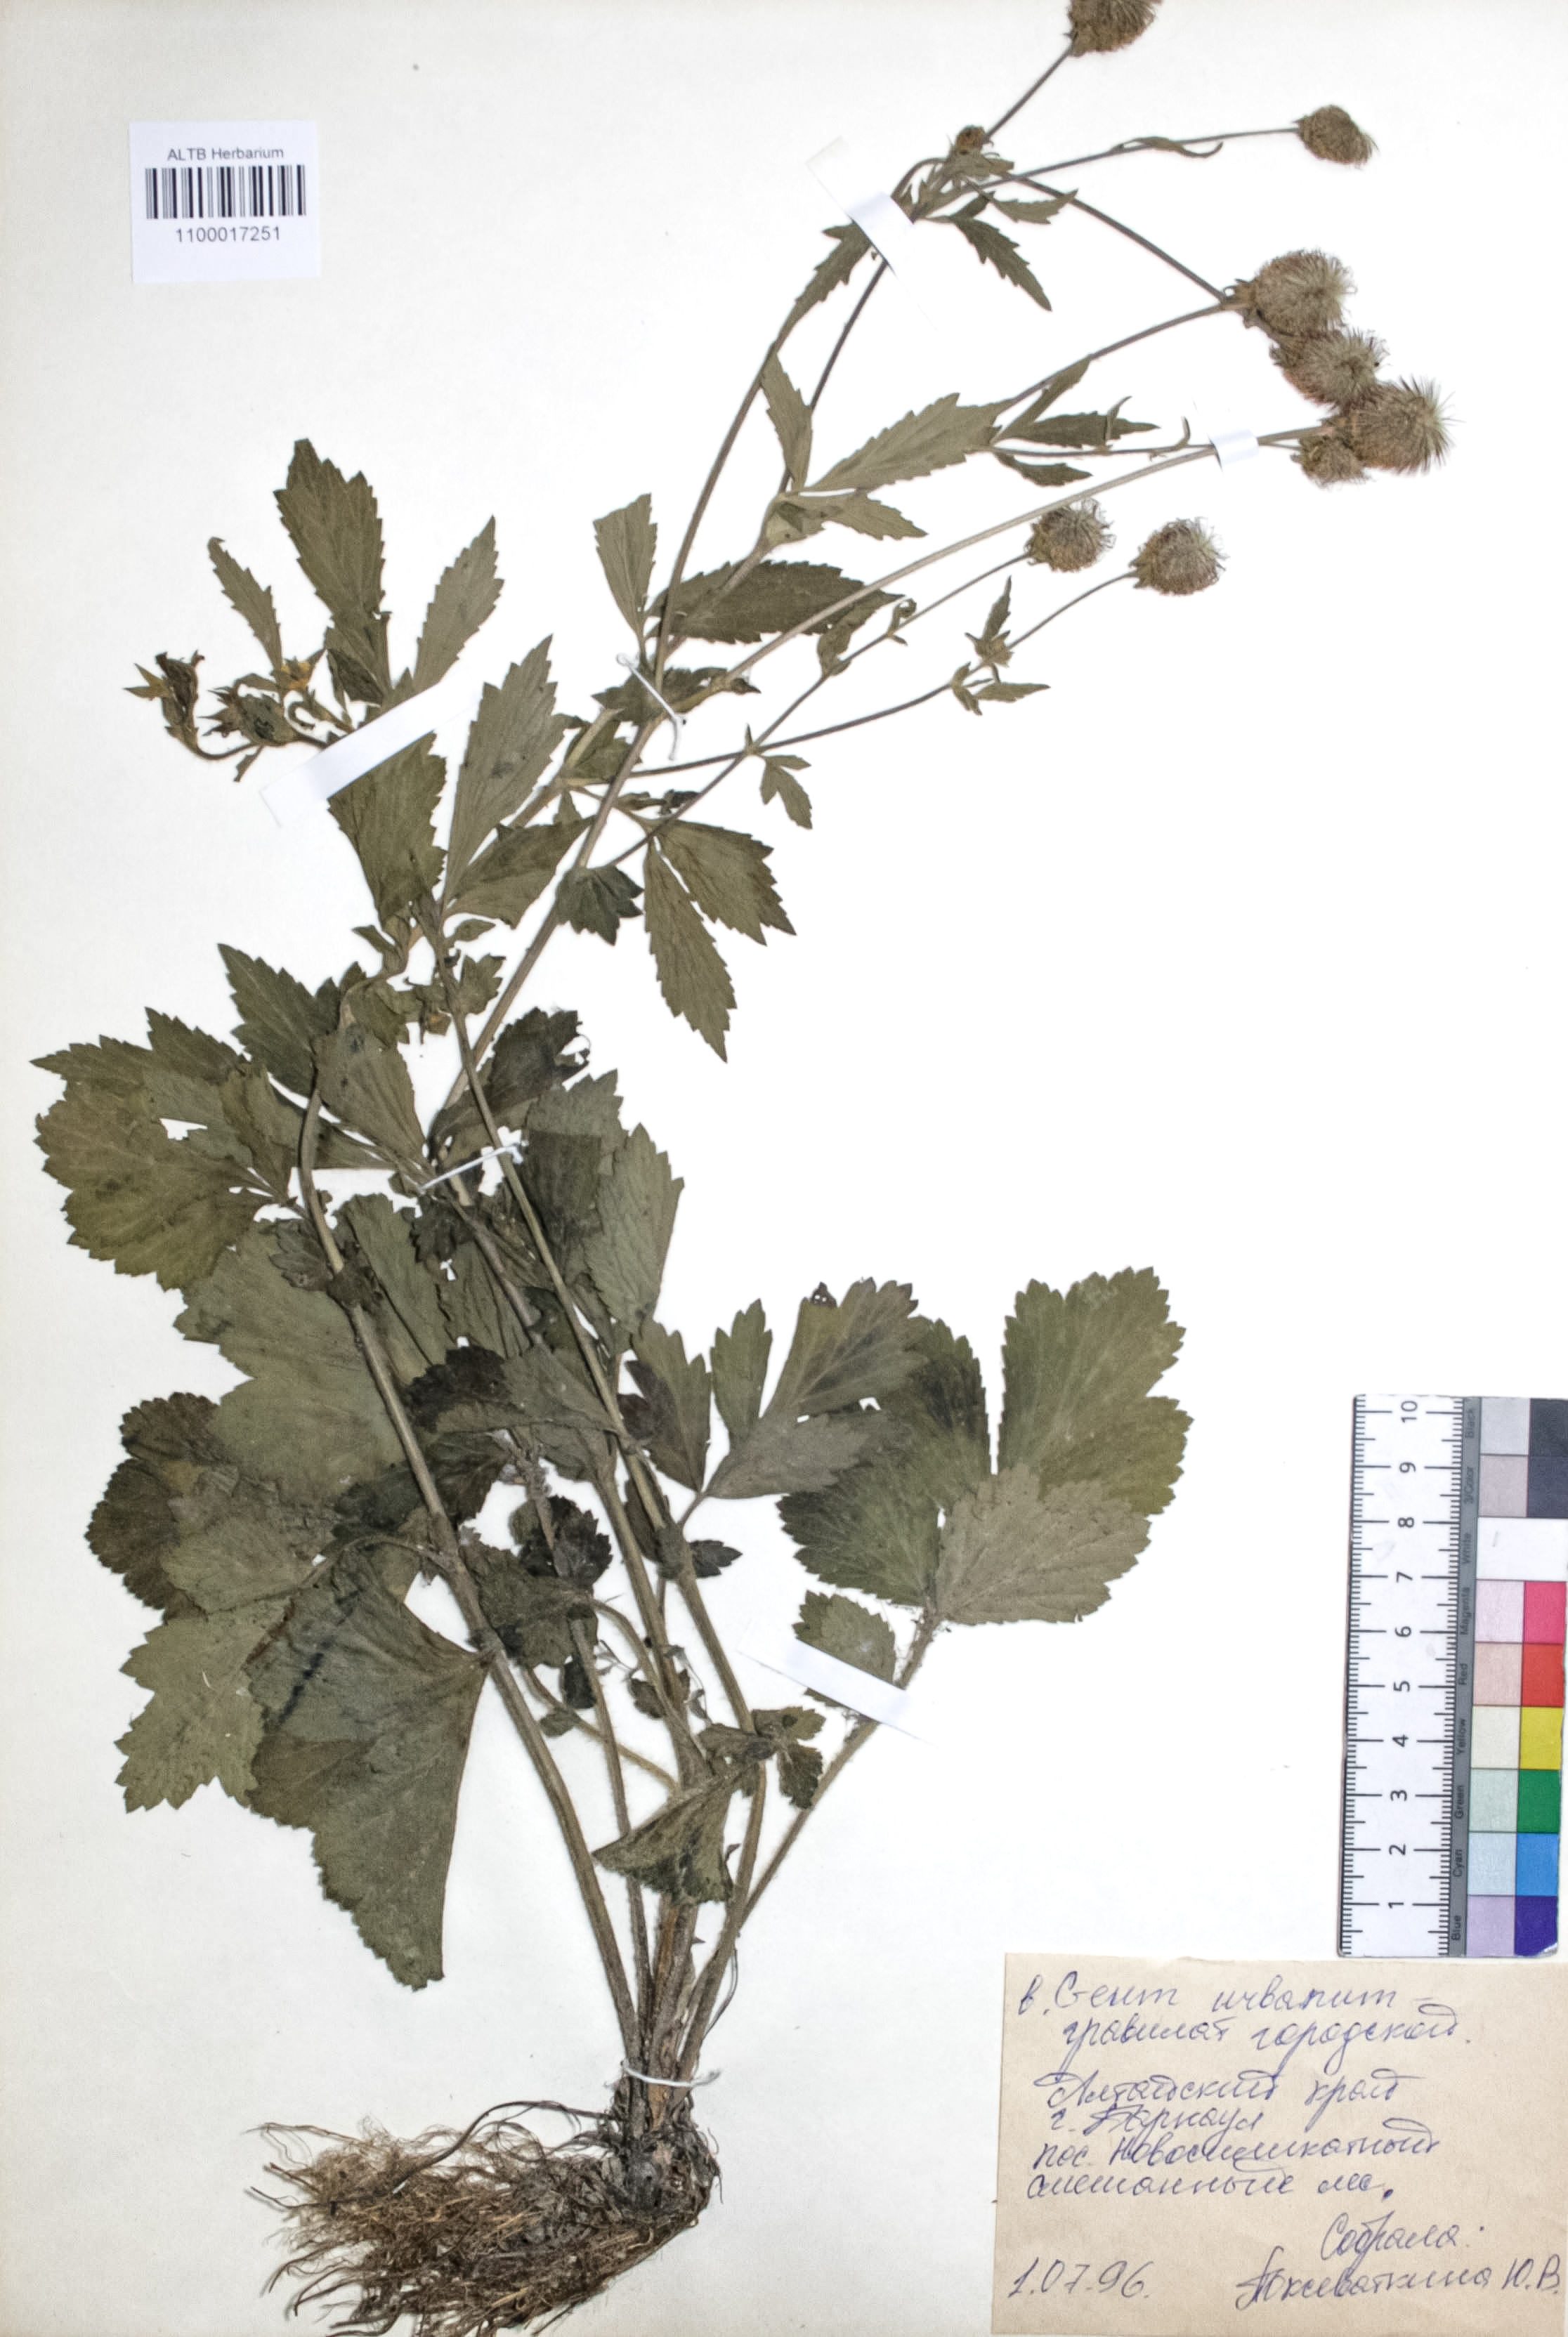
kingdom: Plantae
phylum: Tracheophyta
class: Magnoliopsida
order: Rosales
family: Rosaceae
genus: Geum
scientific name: Geum urbanum
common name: Wood avens
